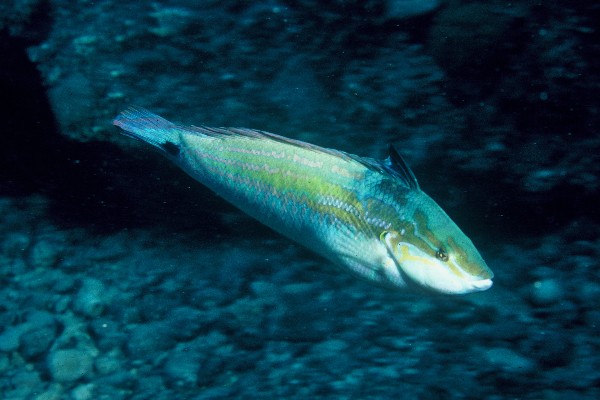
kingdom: Animalia
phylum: Chordata
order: Perciformes
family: Labridae
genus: Coris
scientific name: Coris caudimacula
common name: Spottail coris
